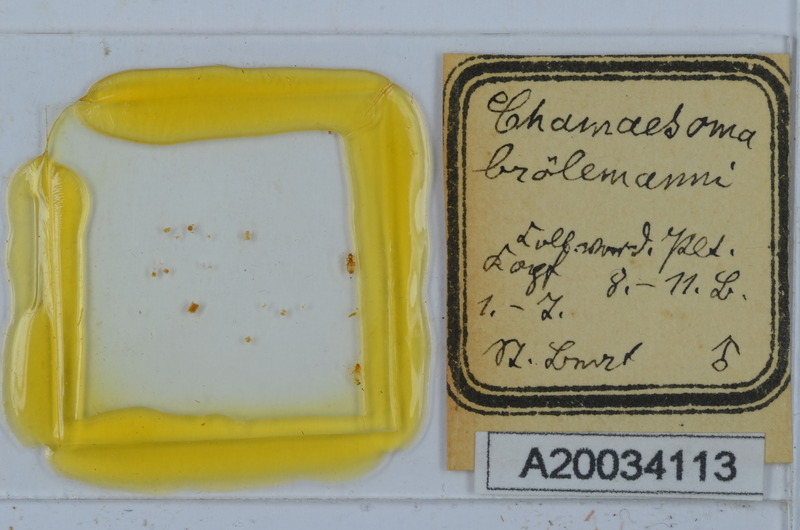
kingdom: Animalia
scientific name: Animalia
